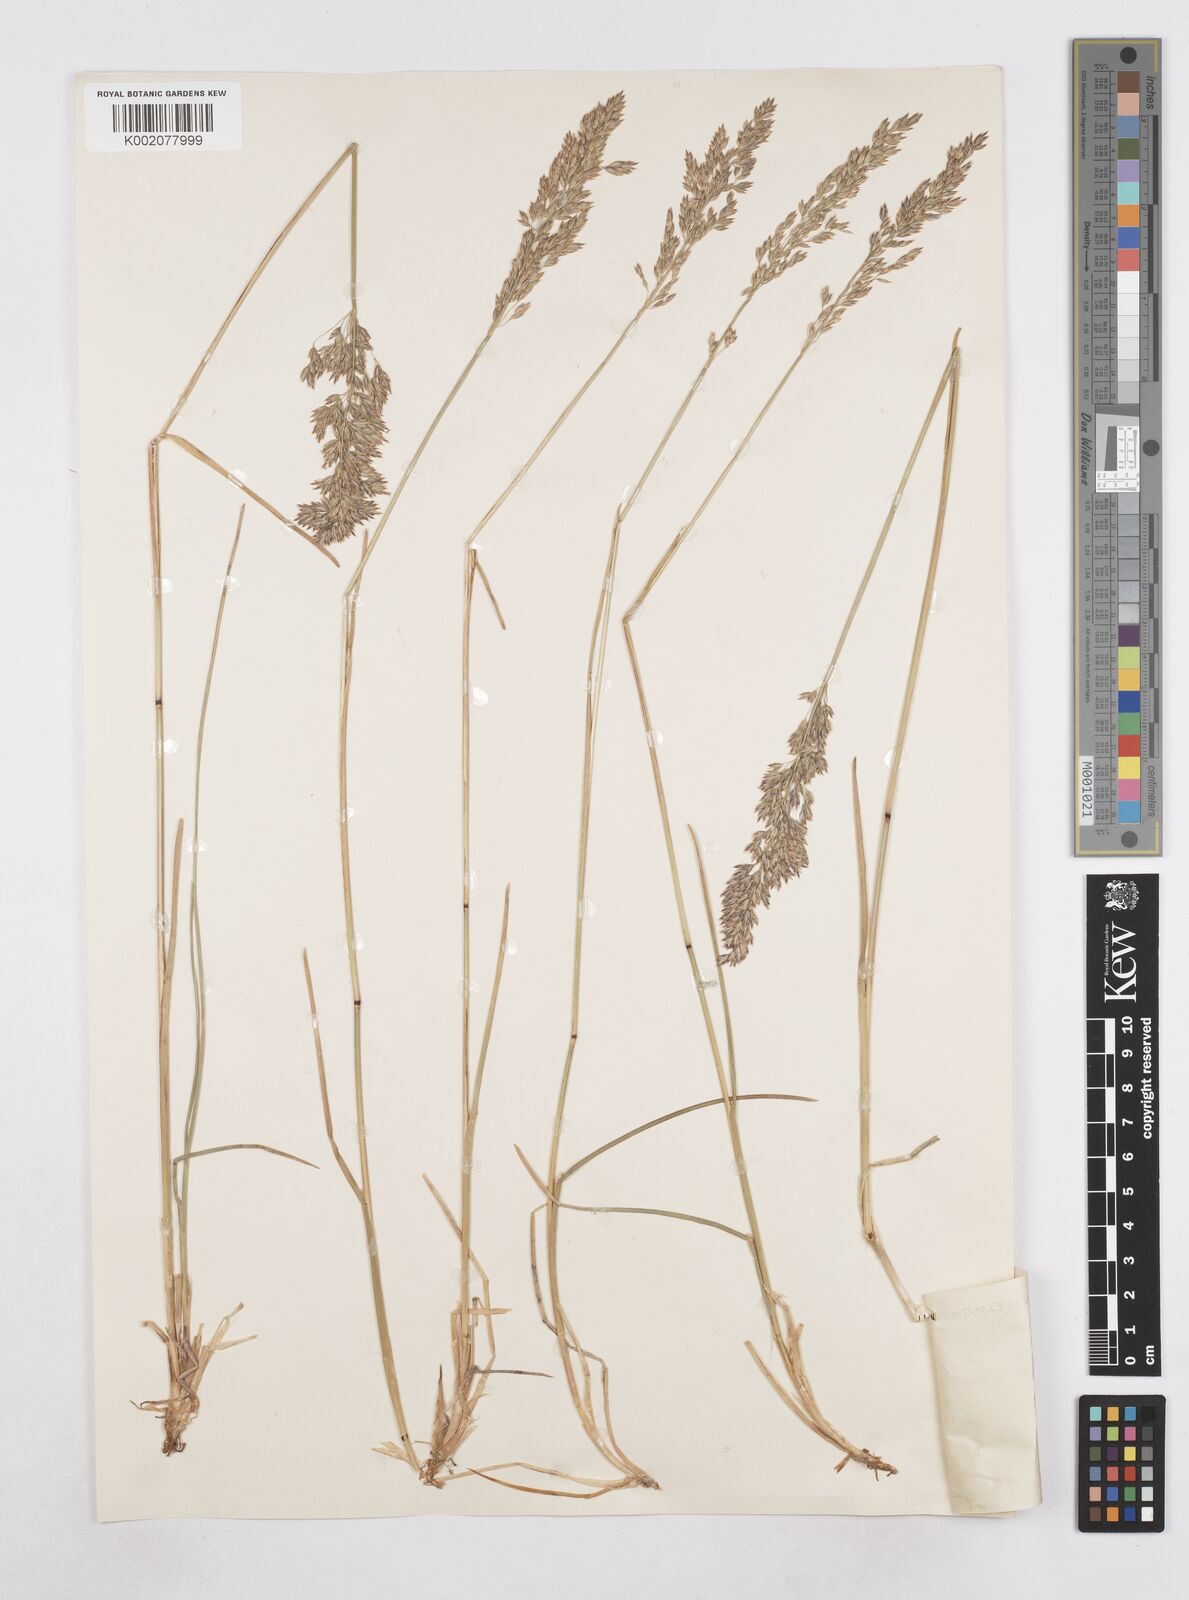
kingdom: Plantae
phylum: Tracheophyta
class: Liliopsida
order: Poales
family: Poaceae
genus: Poa
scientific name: Poa arctica
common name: Arctic bluegrass
